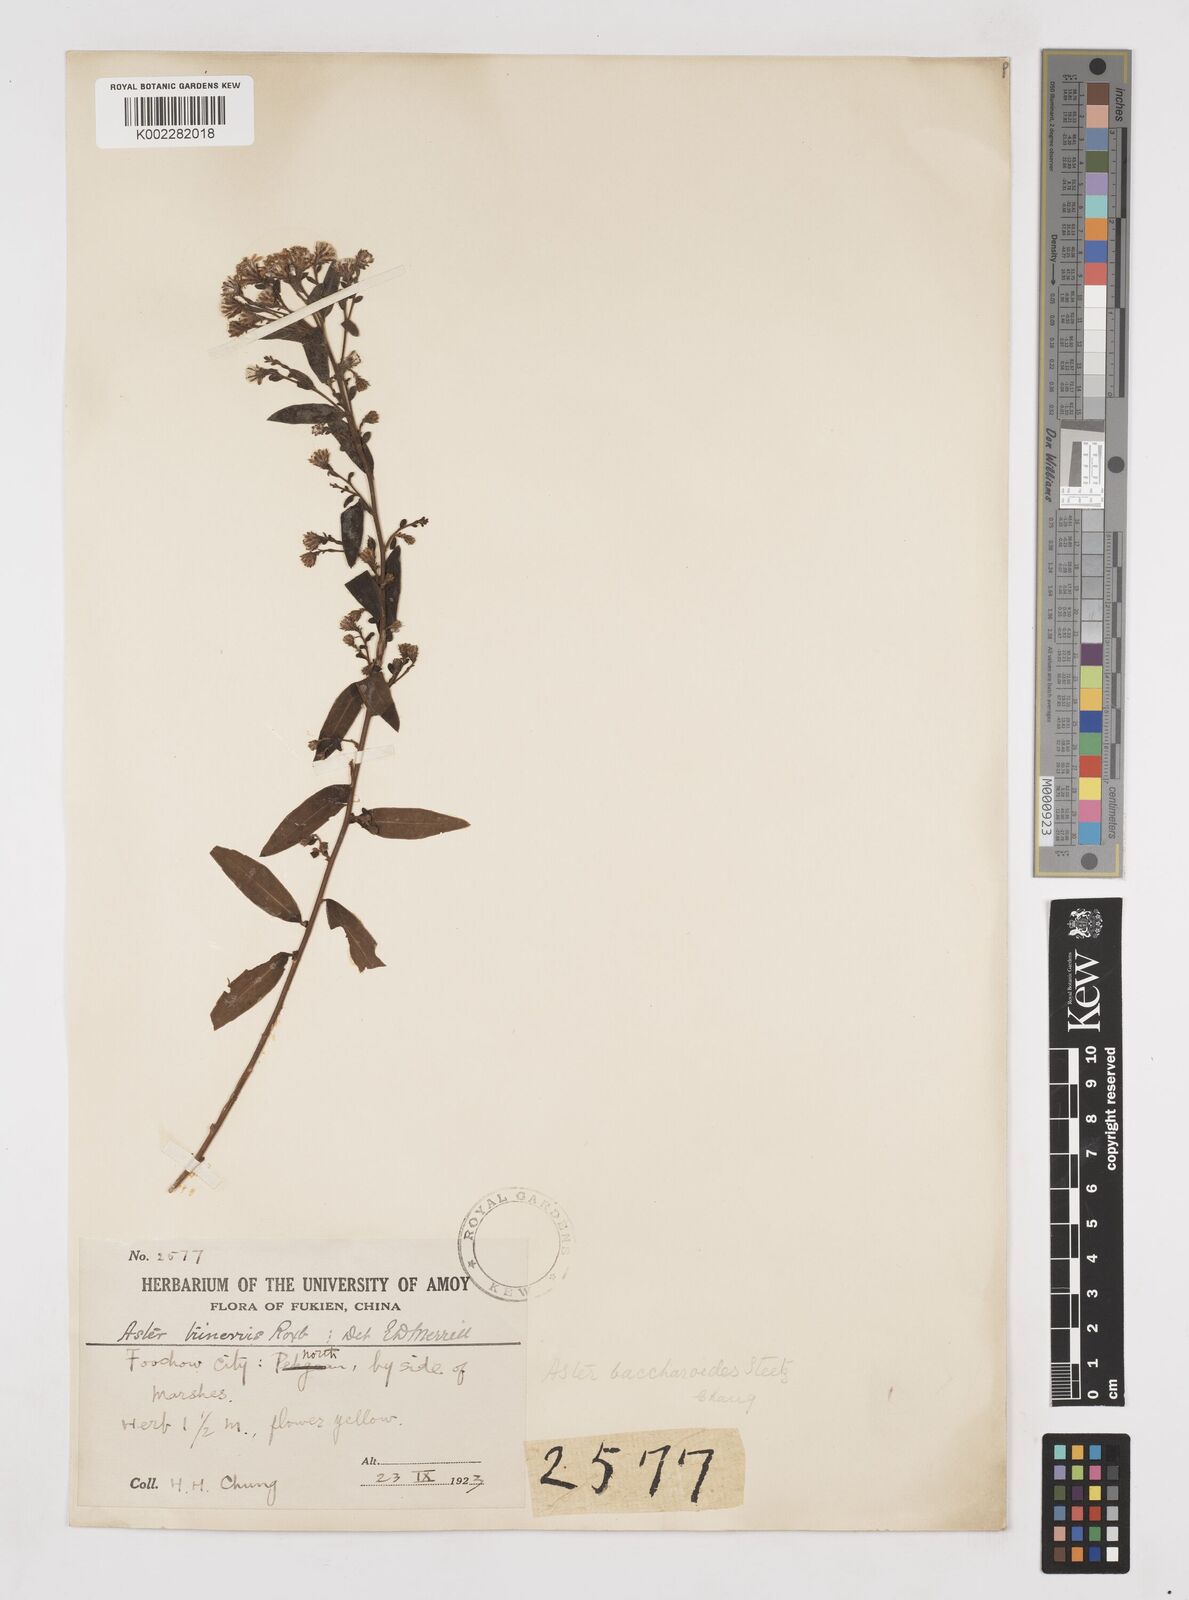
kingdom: Plantae
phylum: Tracheophyta
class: Magnoliopsida
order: Asterales
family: Asteraceae
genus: Aster
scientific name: Aster baccharoides
